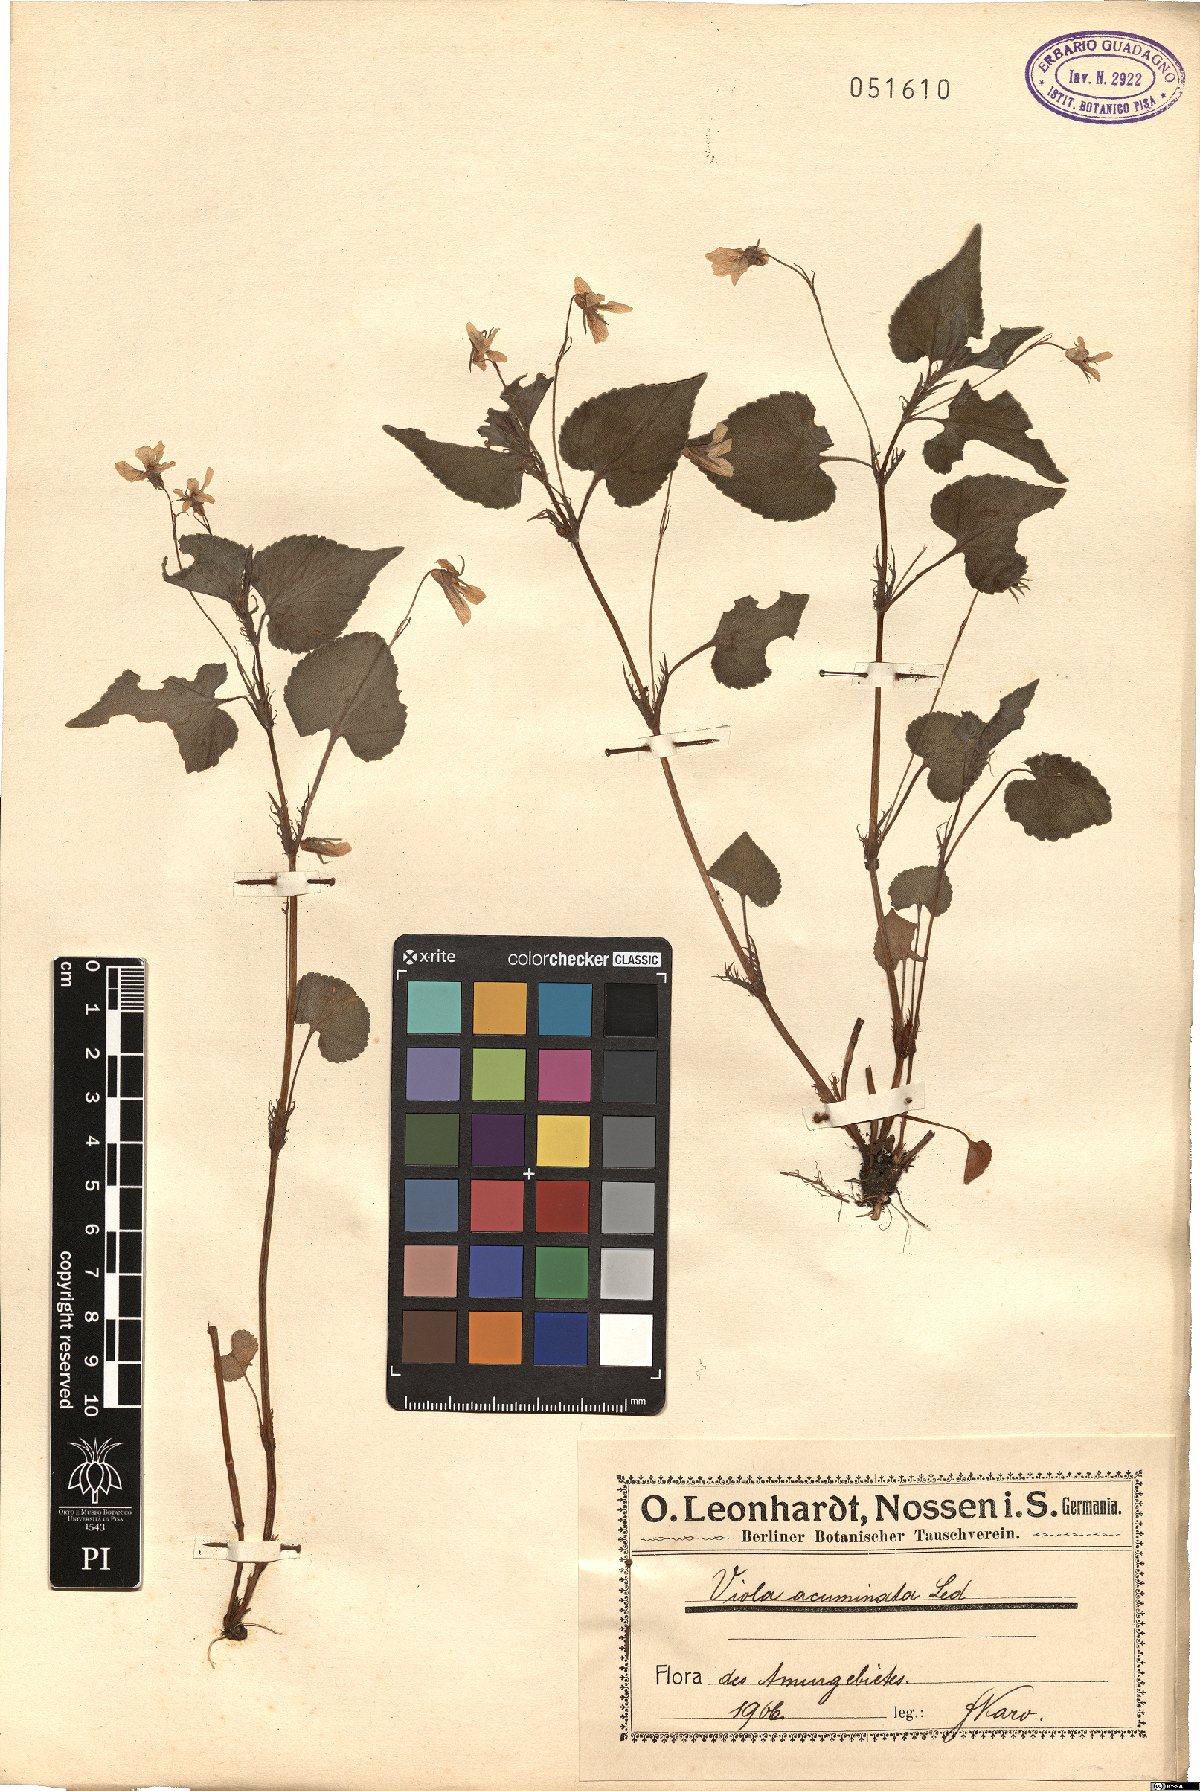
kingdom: Plantae
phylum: Tracheophyta
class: Magnoliopsida
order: Malpighiales
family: Violaceae
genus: Viola
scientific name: Viola acuminata
